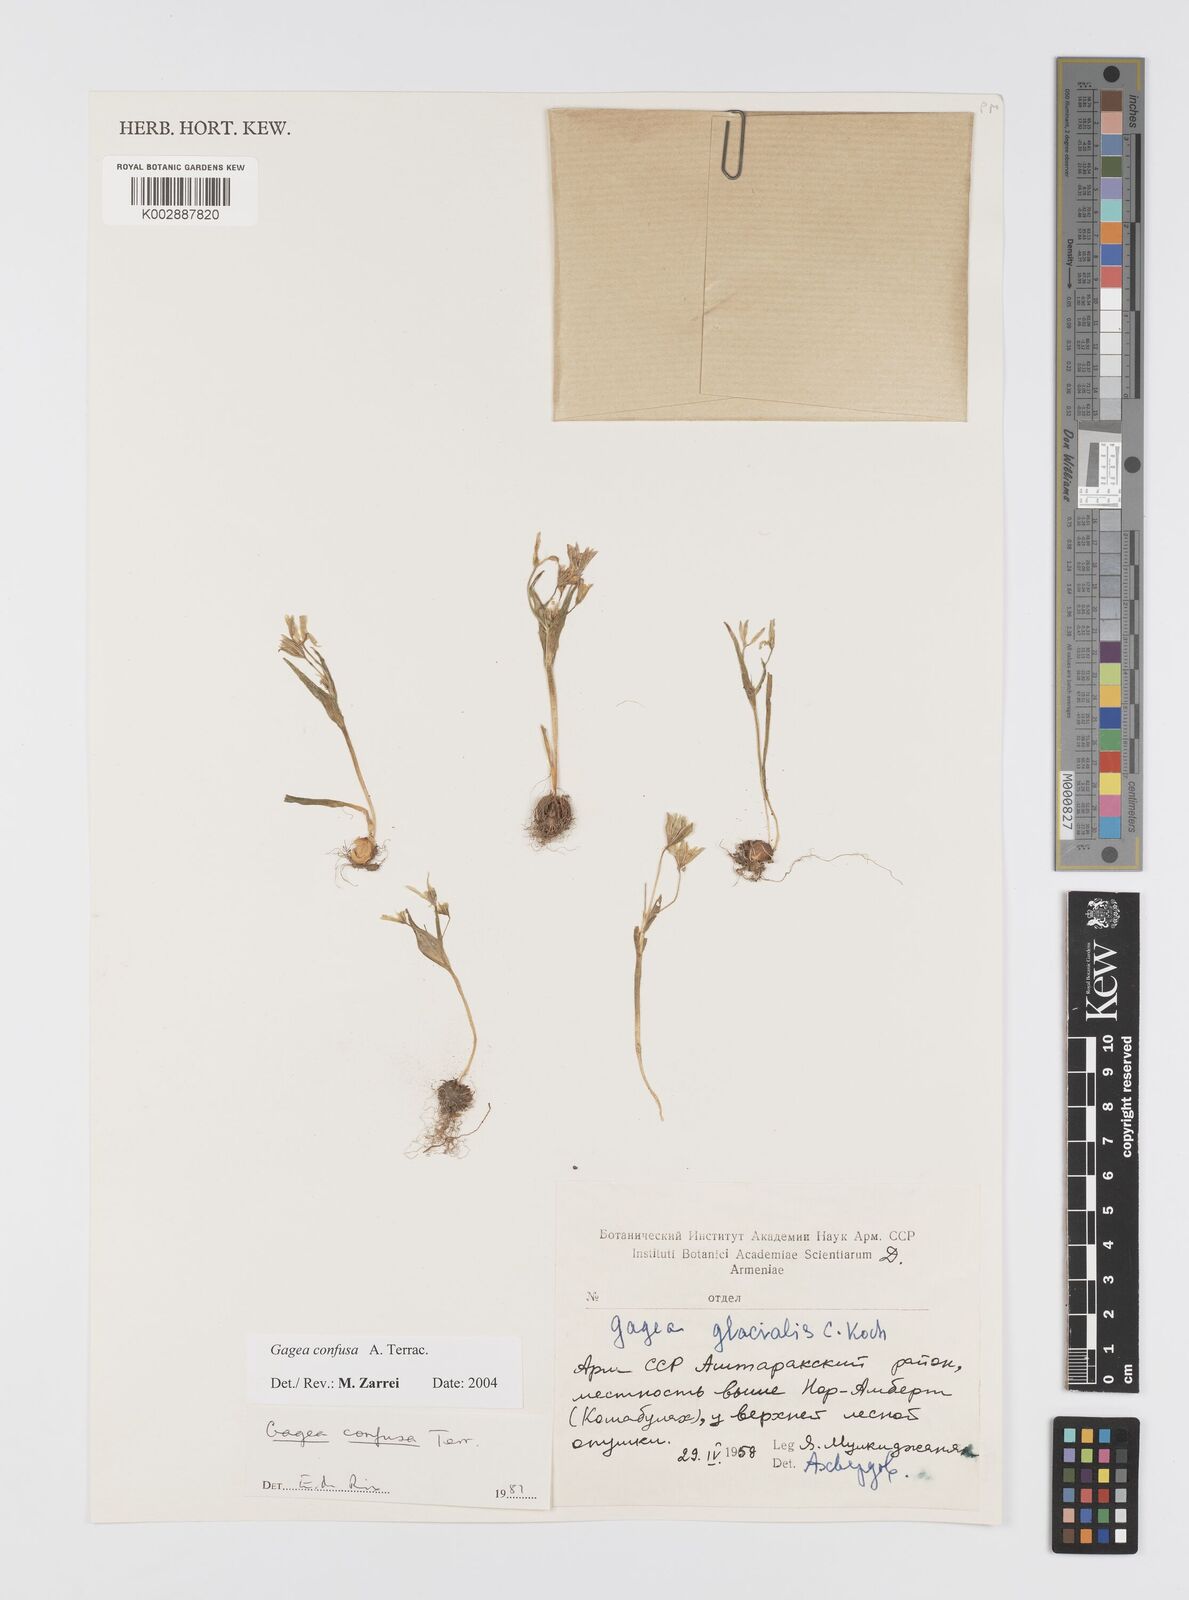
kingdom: Plantae
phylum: Tracheophyta
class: Liliopsida
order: Liliales
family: Liliaceae
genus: Gagea
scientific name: Gagea confusa
